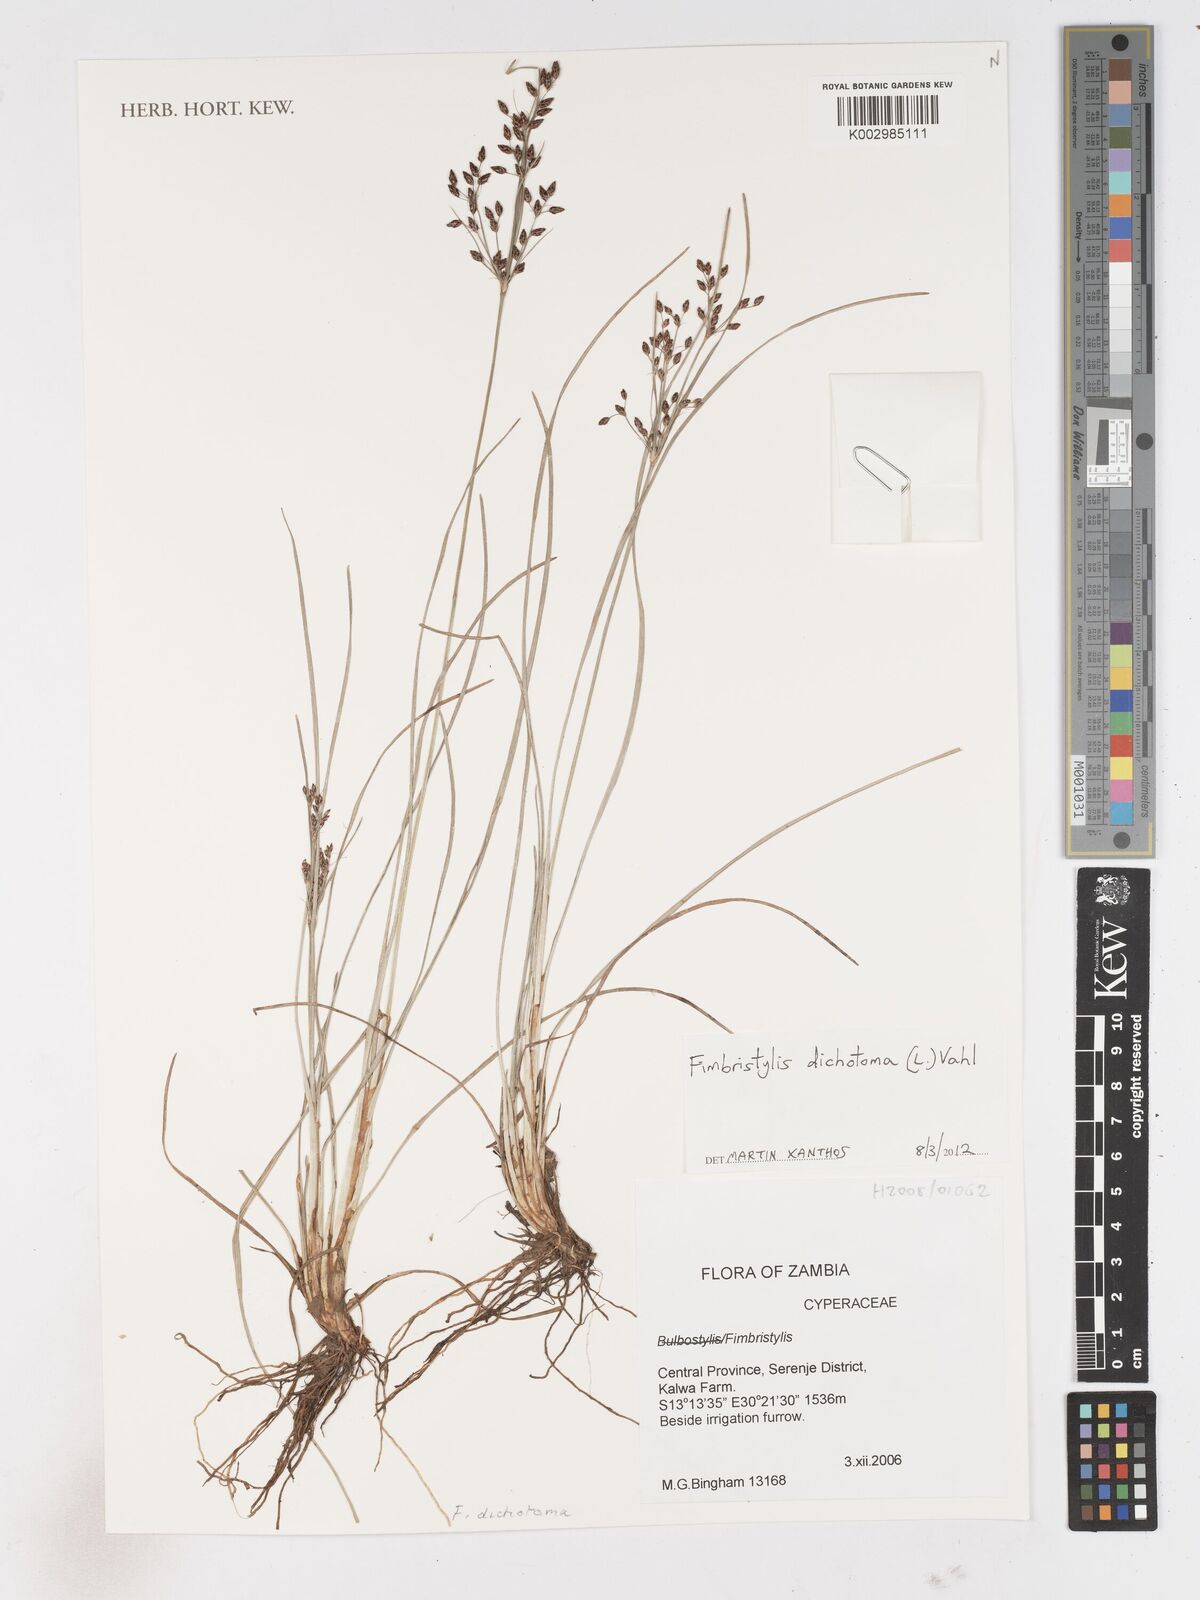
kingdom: Plantae
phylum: Tracheophyta
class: Liliopsida
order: Poales
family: Cyperaceae
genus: Fimbristylis
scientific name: Fimbristylis dichotoma
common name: Forked fimbry
